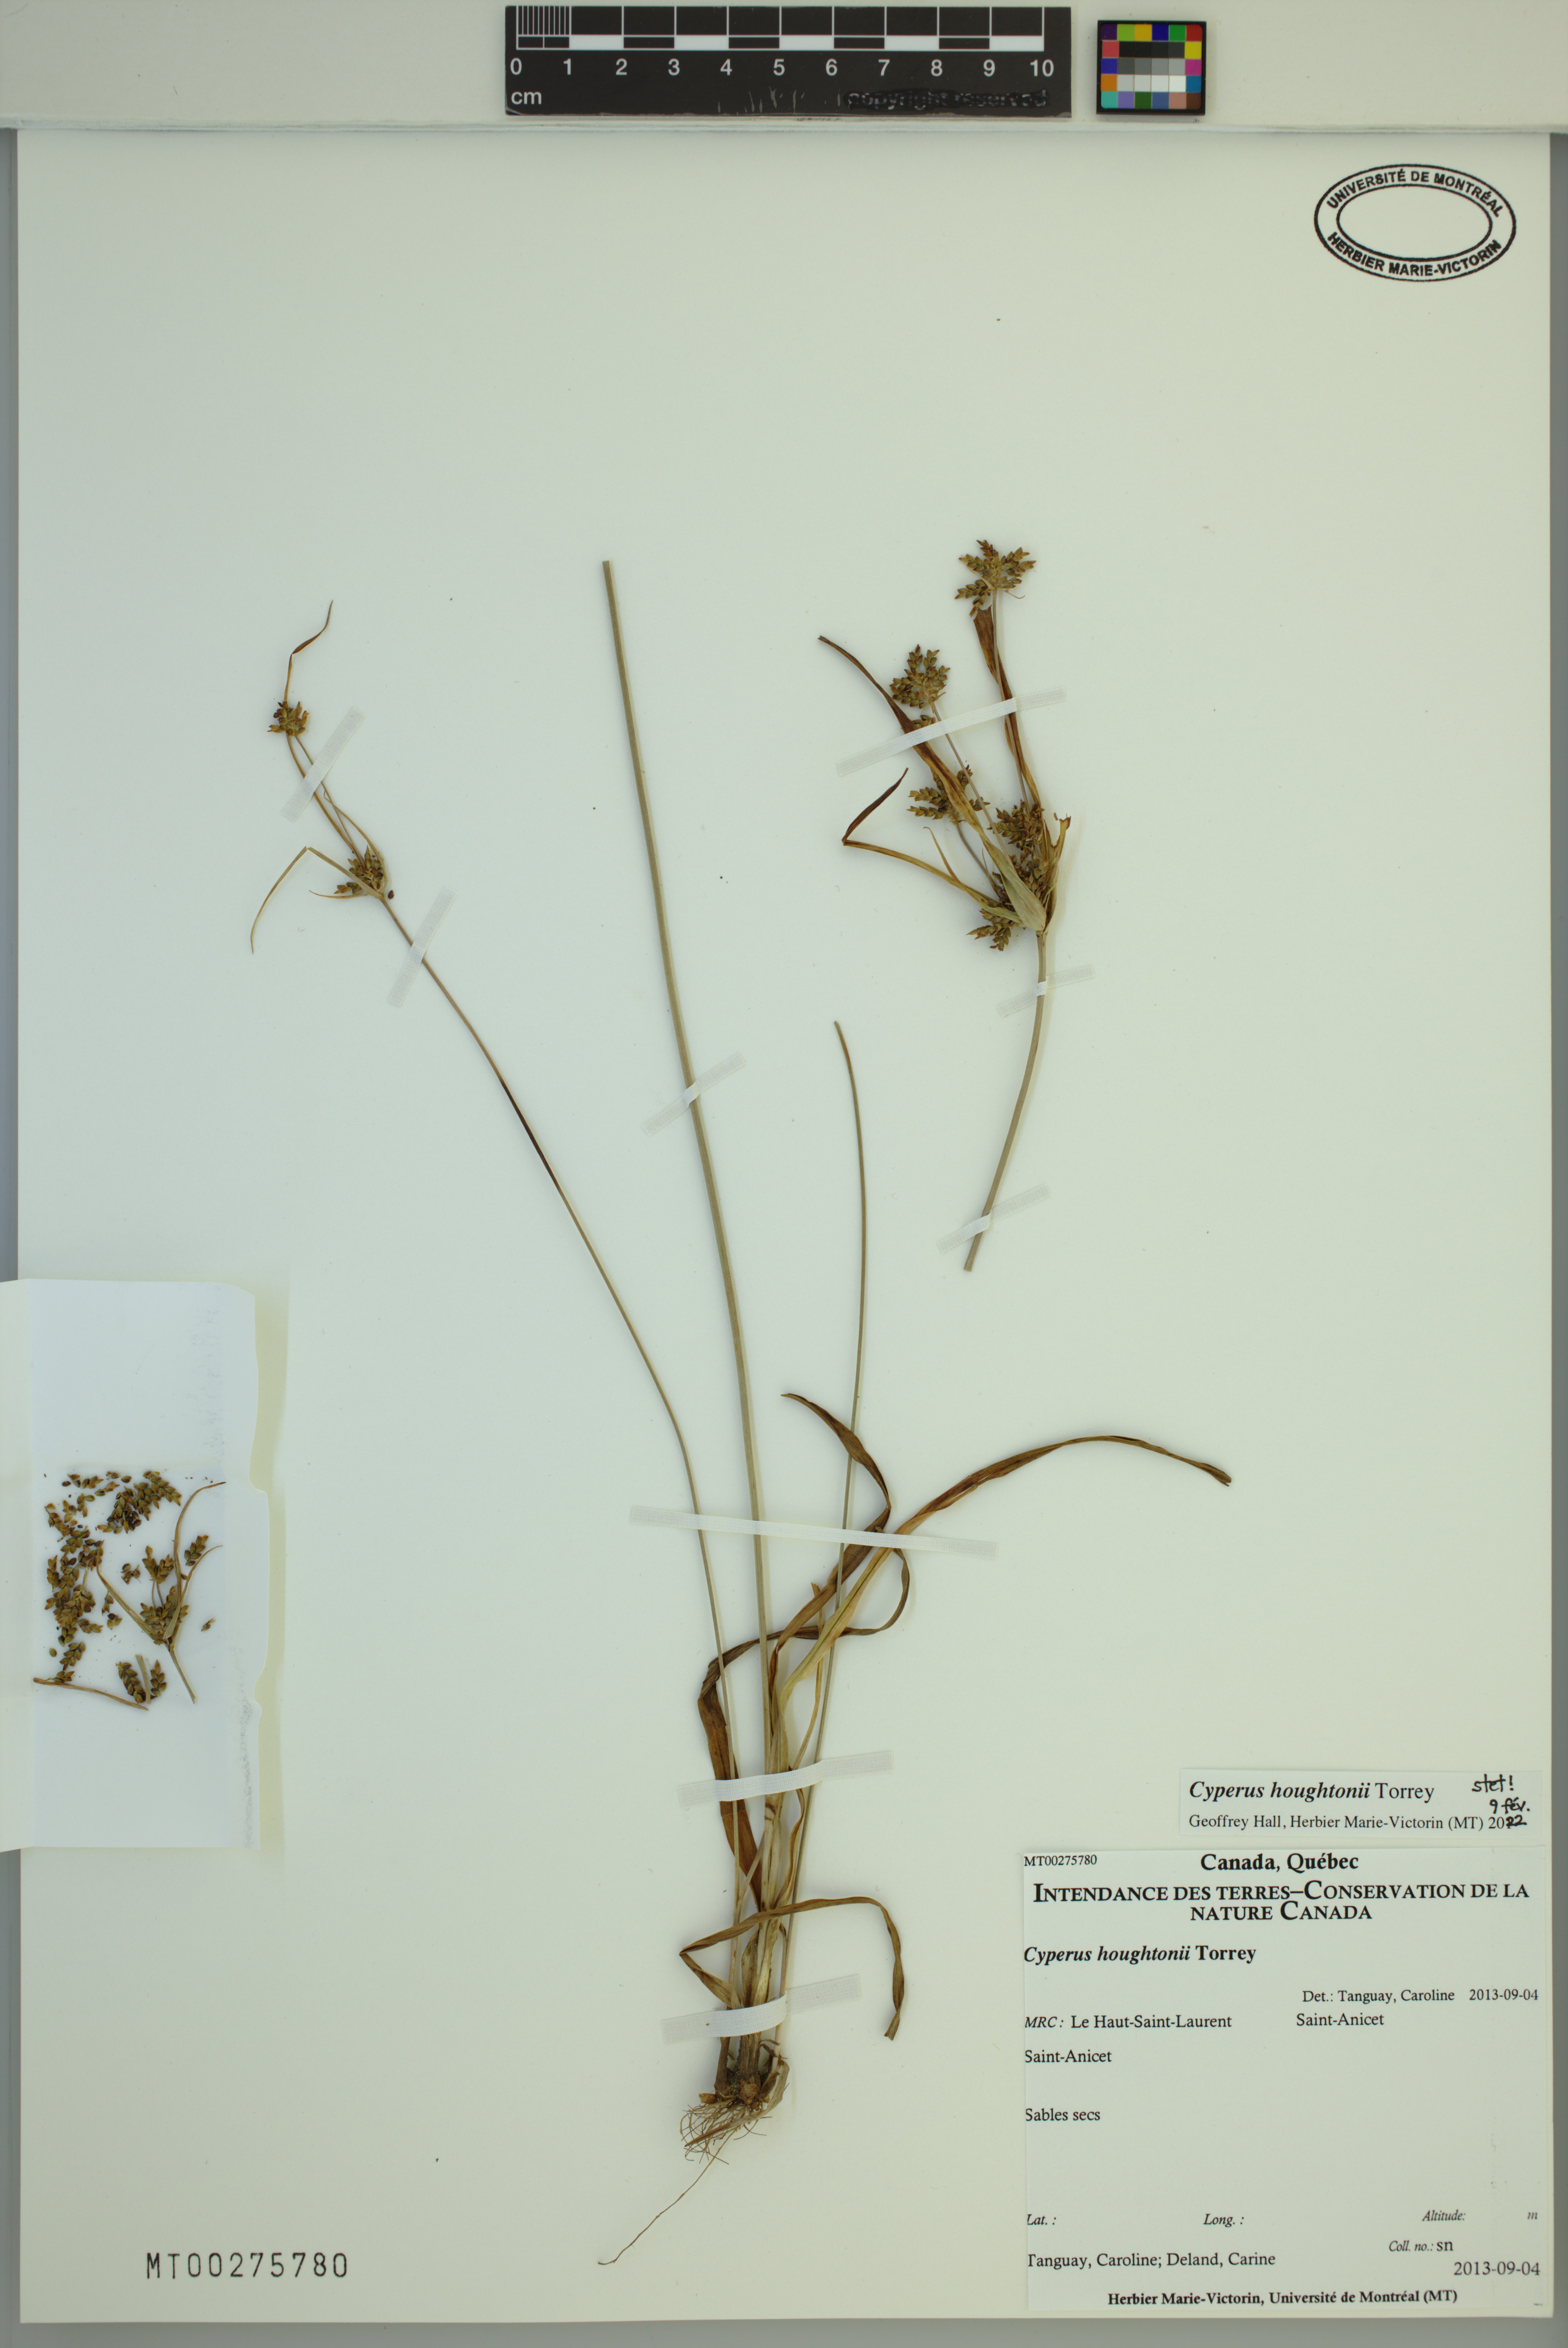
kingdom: Plantae
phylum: Tracheophyta
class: Liliopsida
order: Poales
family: Cyperaceae
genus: Cyperus
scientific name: Cyperus houghtonii
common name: Houghton's cyperus
